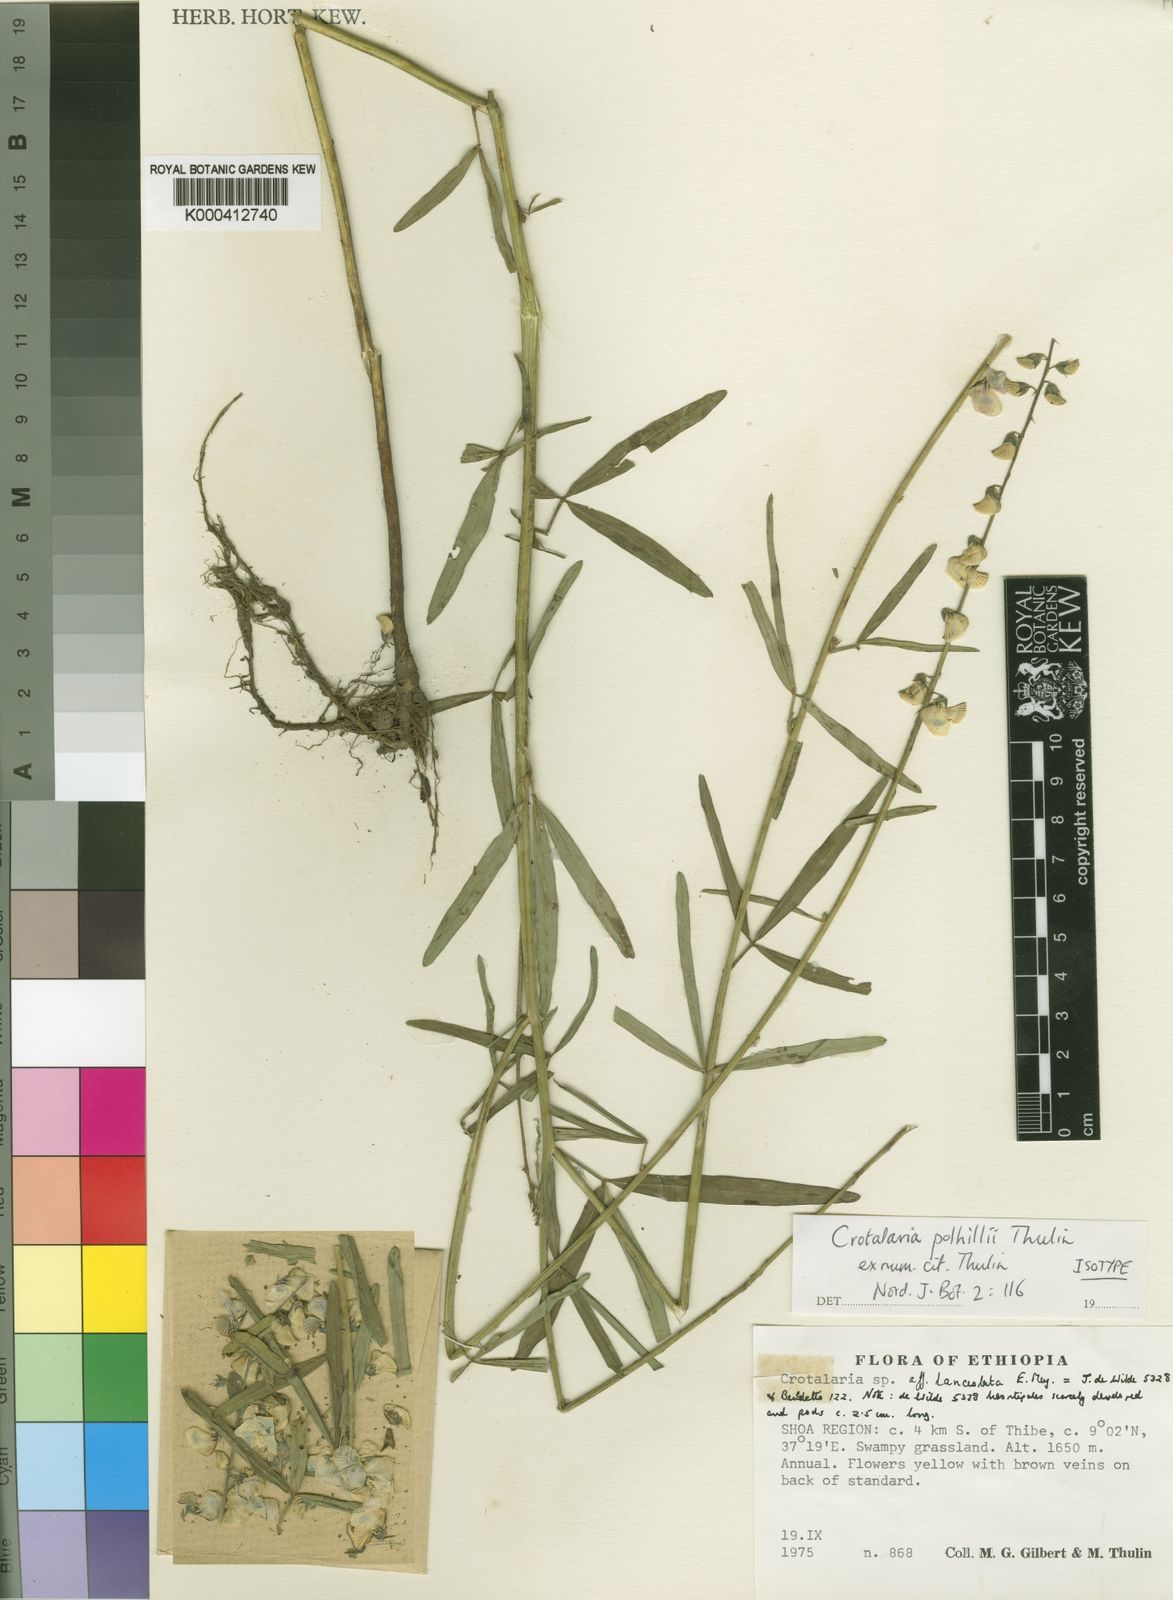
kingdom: Plantae
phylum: Tracheophyta
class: Magnoliopsida
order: Fabales
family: Fabaceae
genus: Crotalaria
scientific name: Crotalaria polhillii
